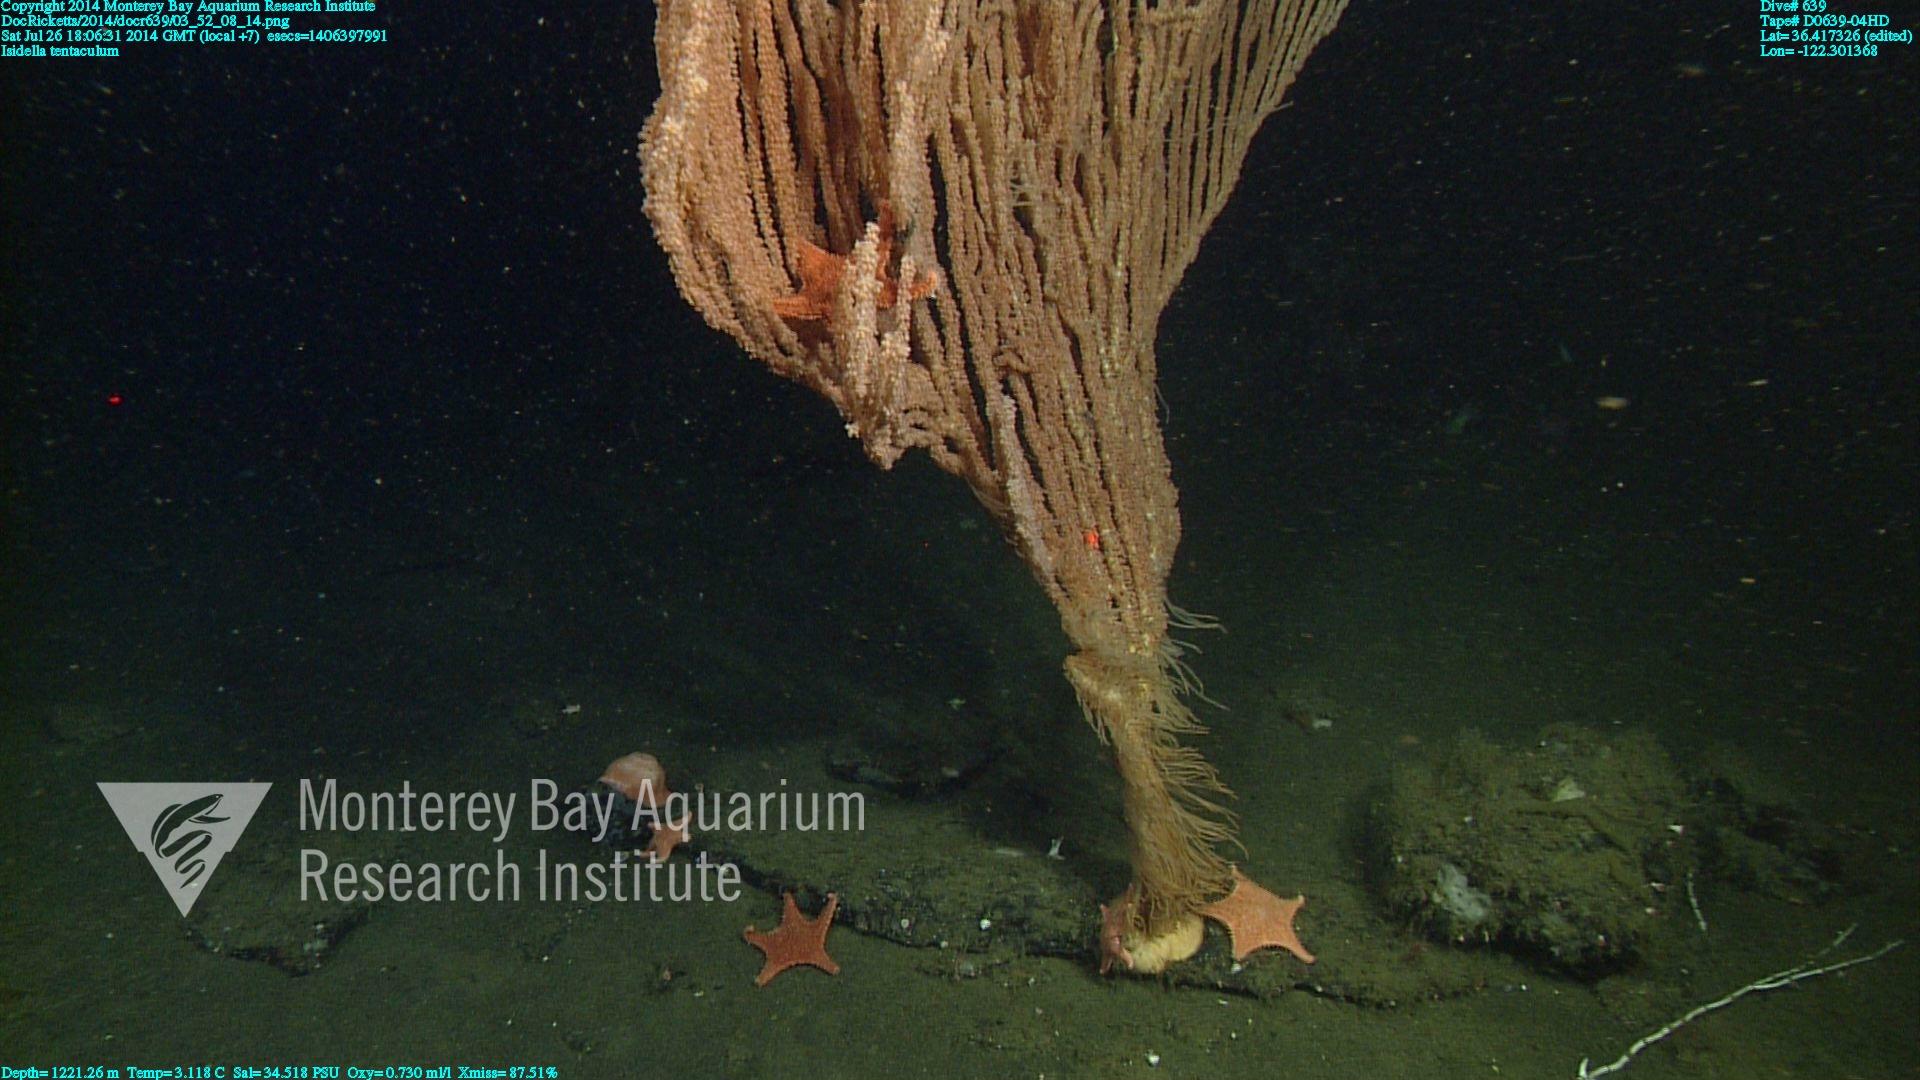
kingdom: Animalia
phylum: Cnidaria
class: Anthozoa
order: Scleralcyonacea
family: Keratoisididae
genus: Isidella
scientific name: Isidella tentaculum
